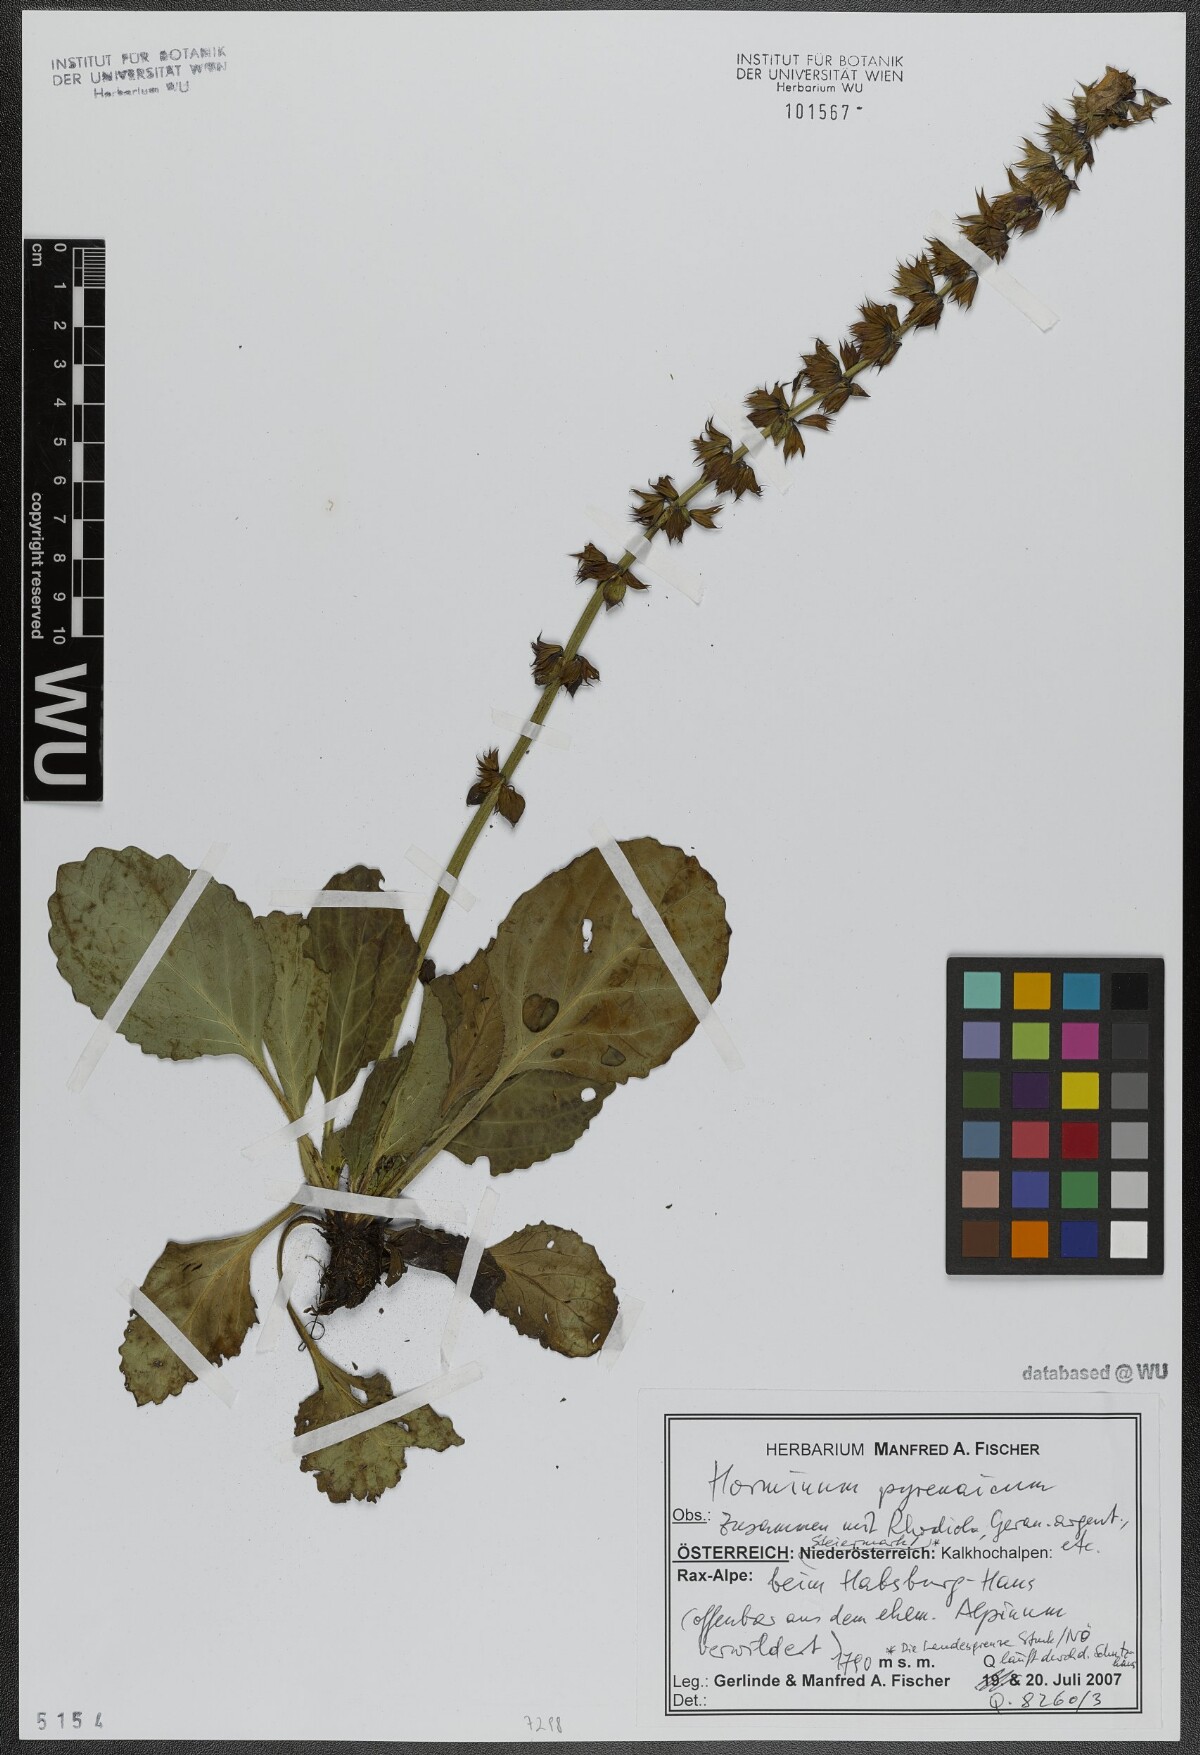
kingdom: Plantae
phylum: Tracheophyta
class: Magnoliopsida
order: Lamiales
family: Lamiaceae
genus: Horminum
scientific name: Horminum pyrenaicum
